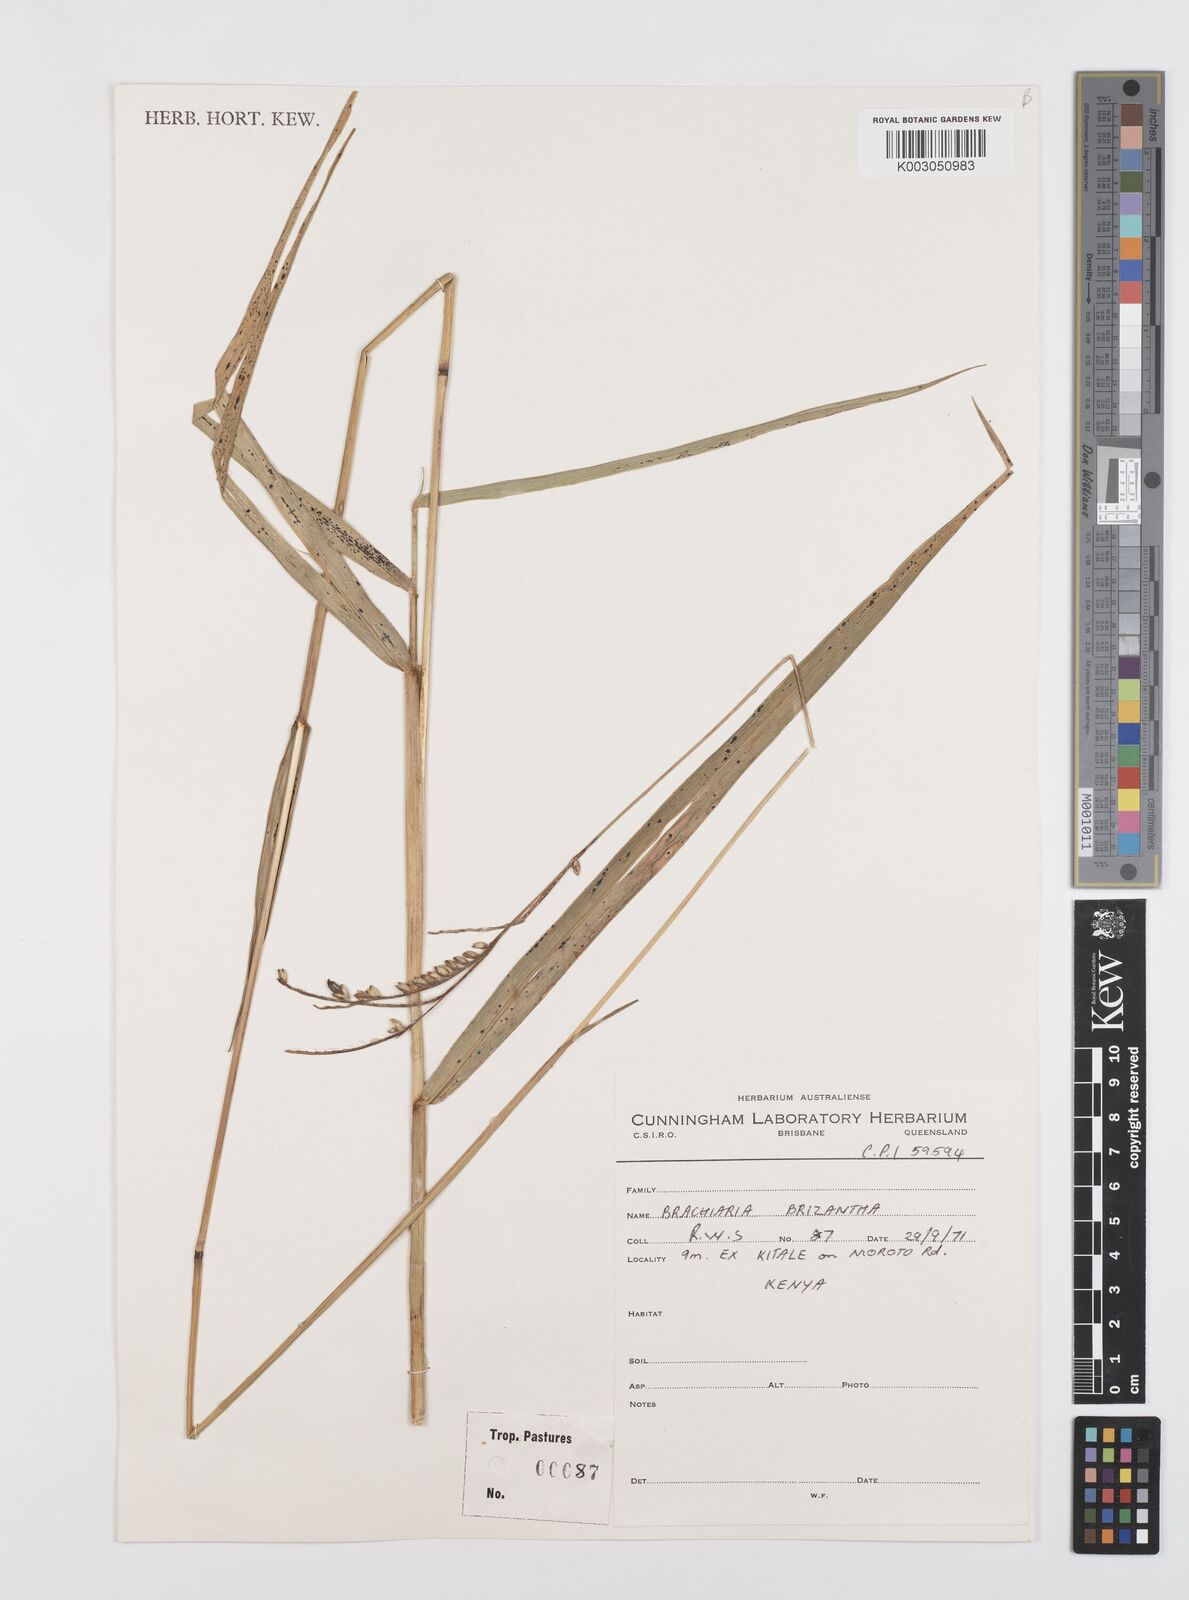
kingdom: Plantae
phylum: Tracheophyta
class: Liliopsida
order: Poales
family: Poaceae
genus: Urochloa
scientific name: Urochloa brizantha
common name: Palisade signalgrass
